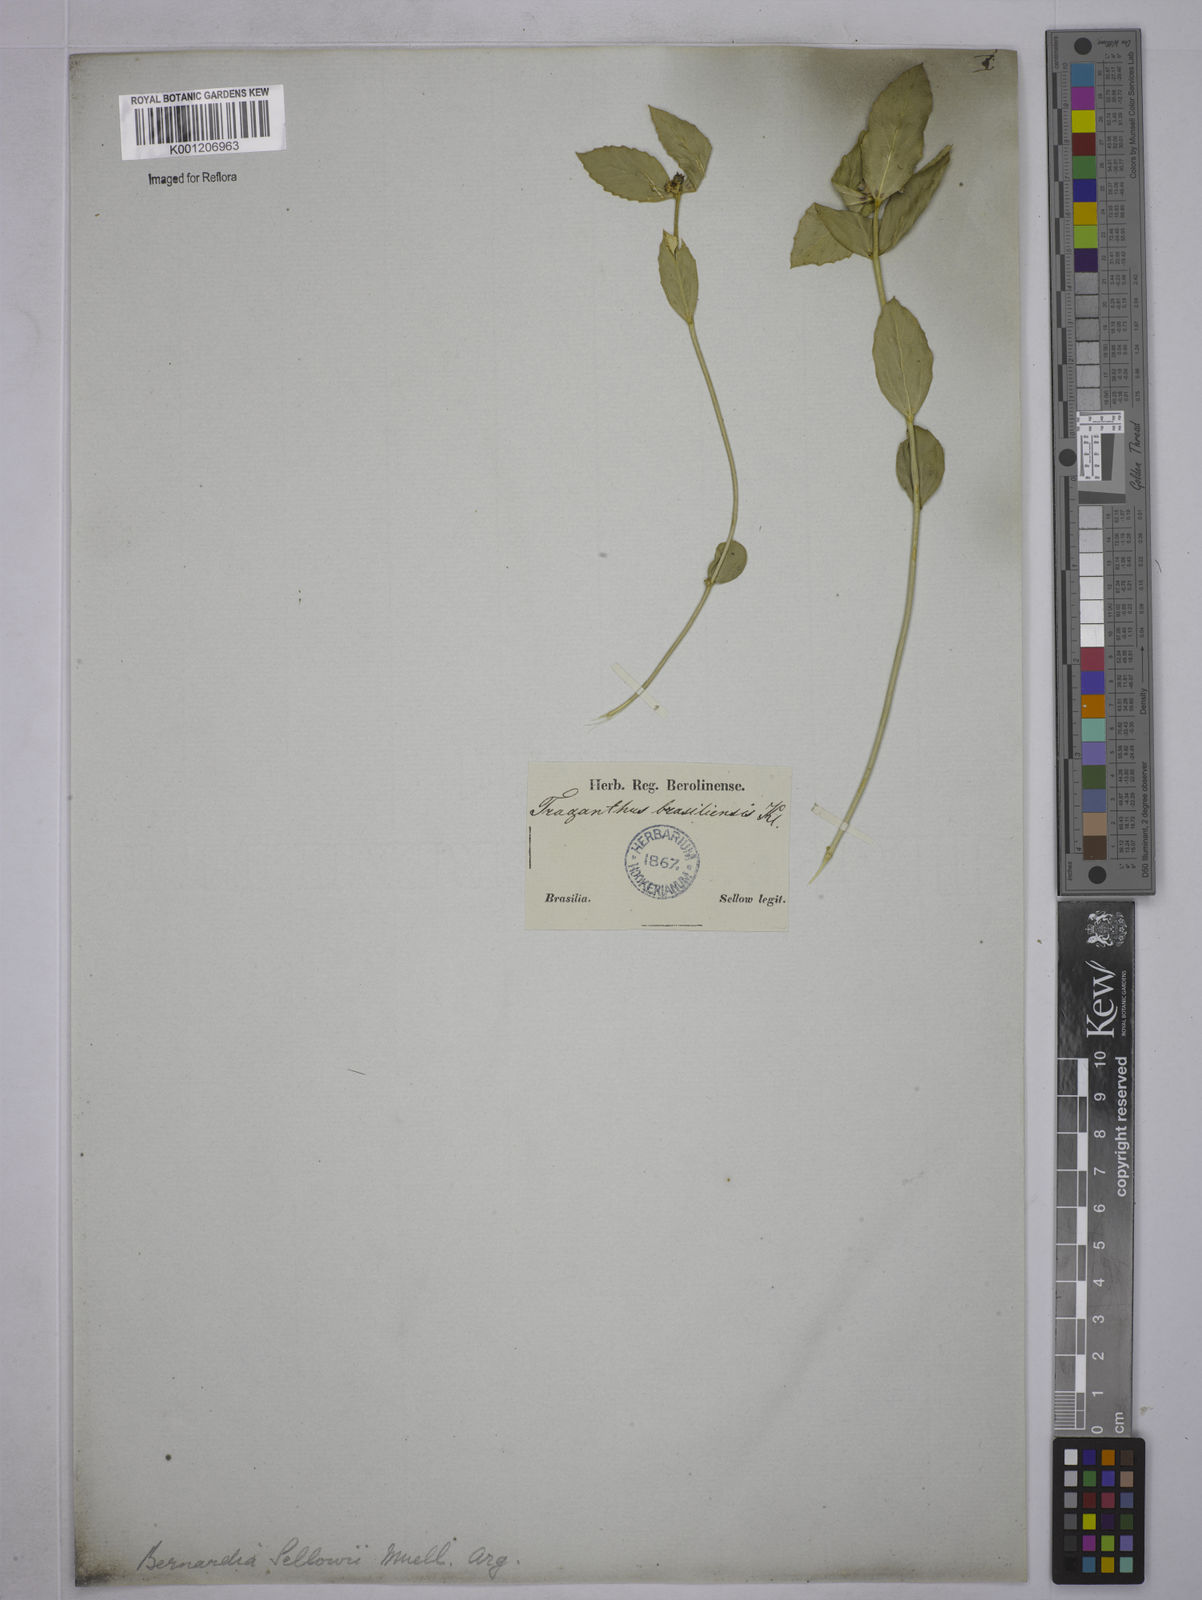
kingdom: Plantae
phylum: Tracheophyta
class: Magnoliopsida
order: Malpighiales
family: Euphorbiaceae
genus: Bernardia
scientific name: Bernardia sellowii
